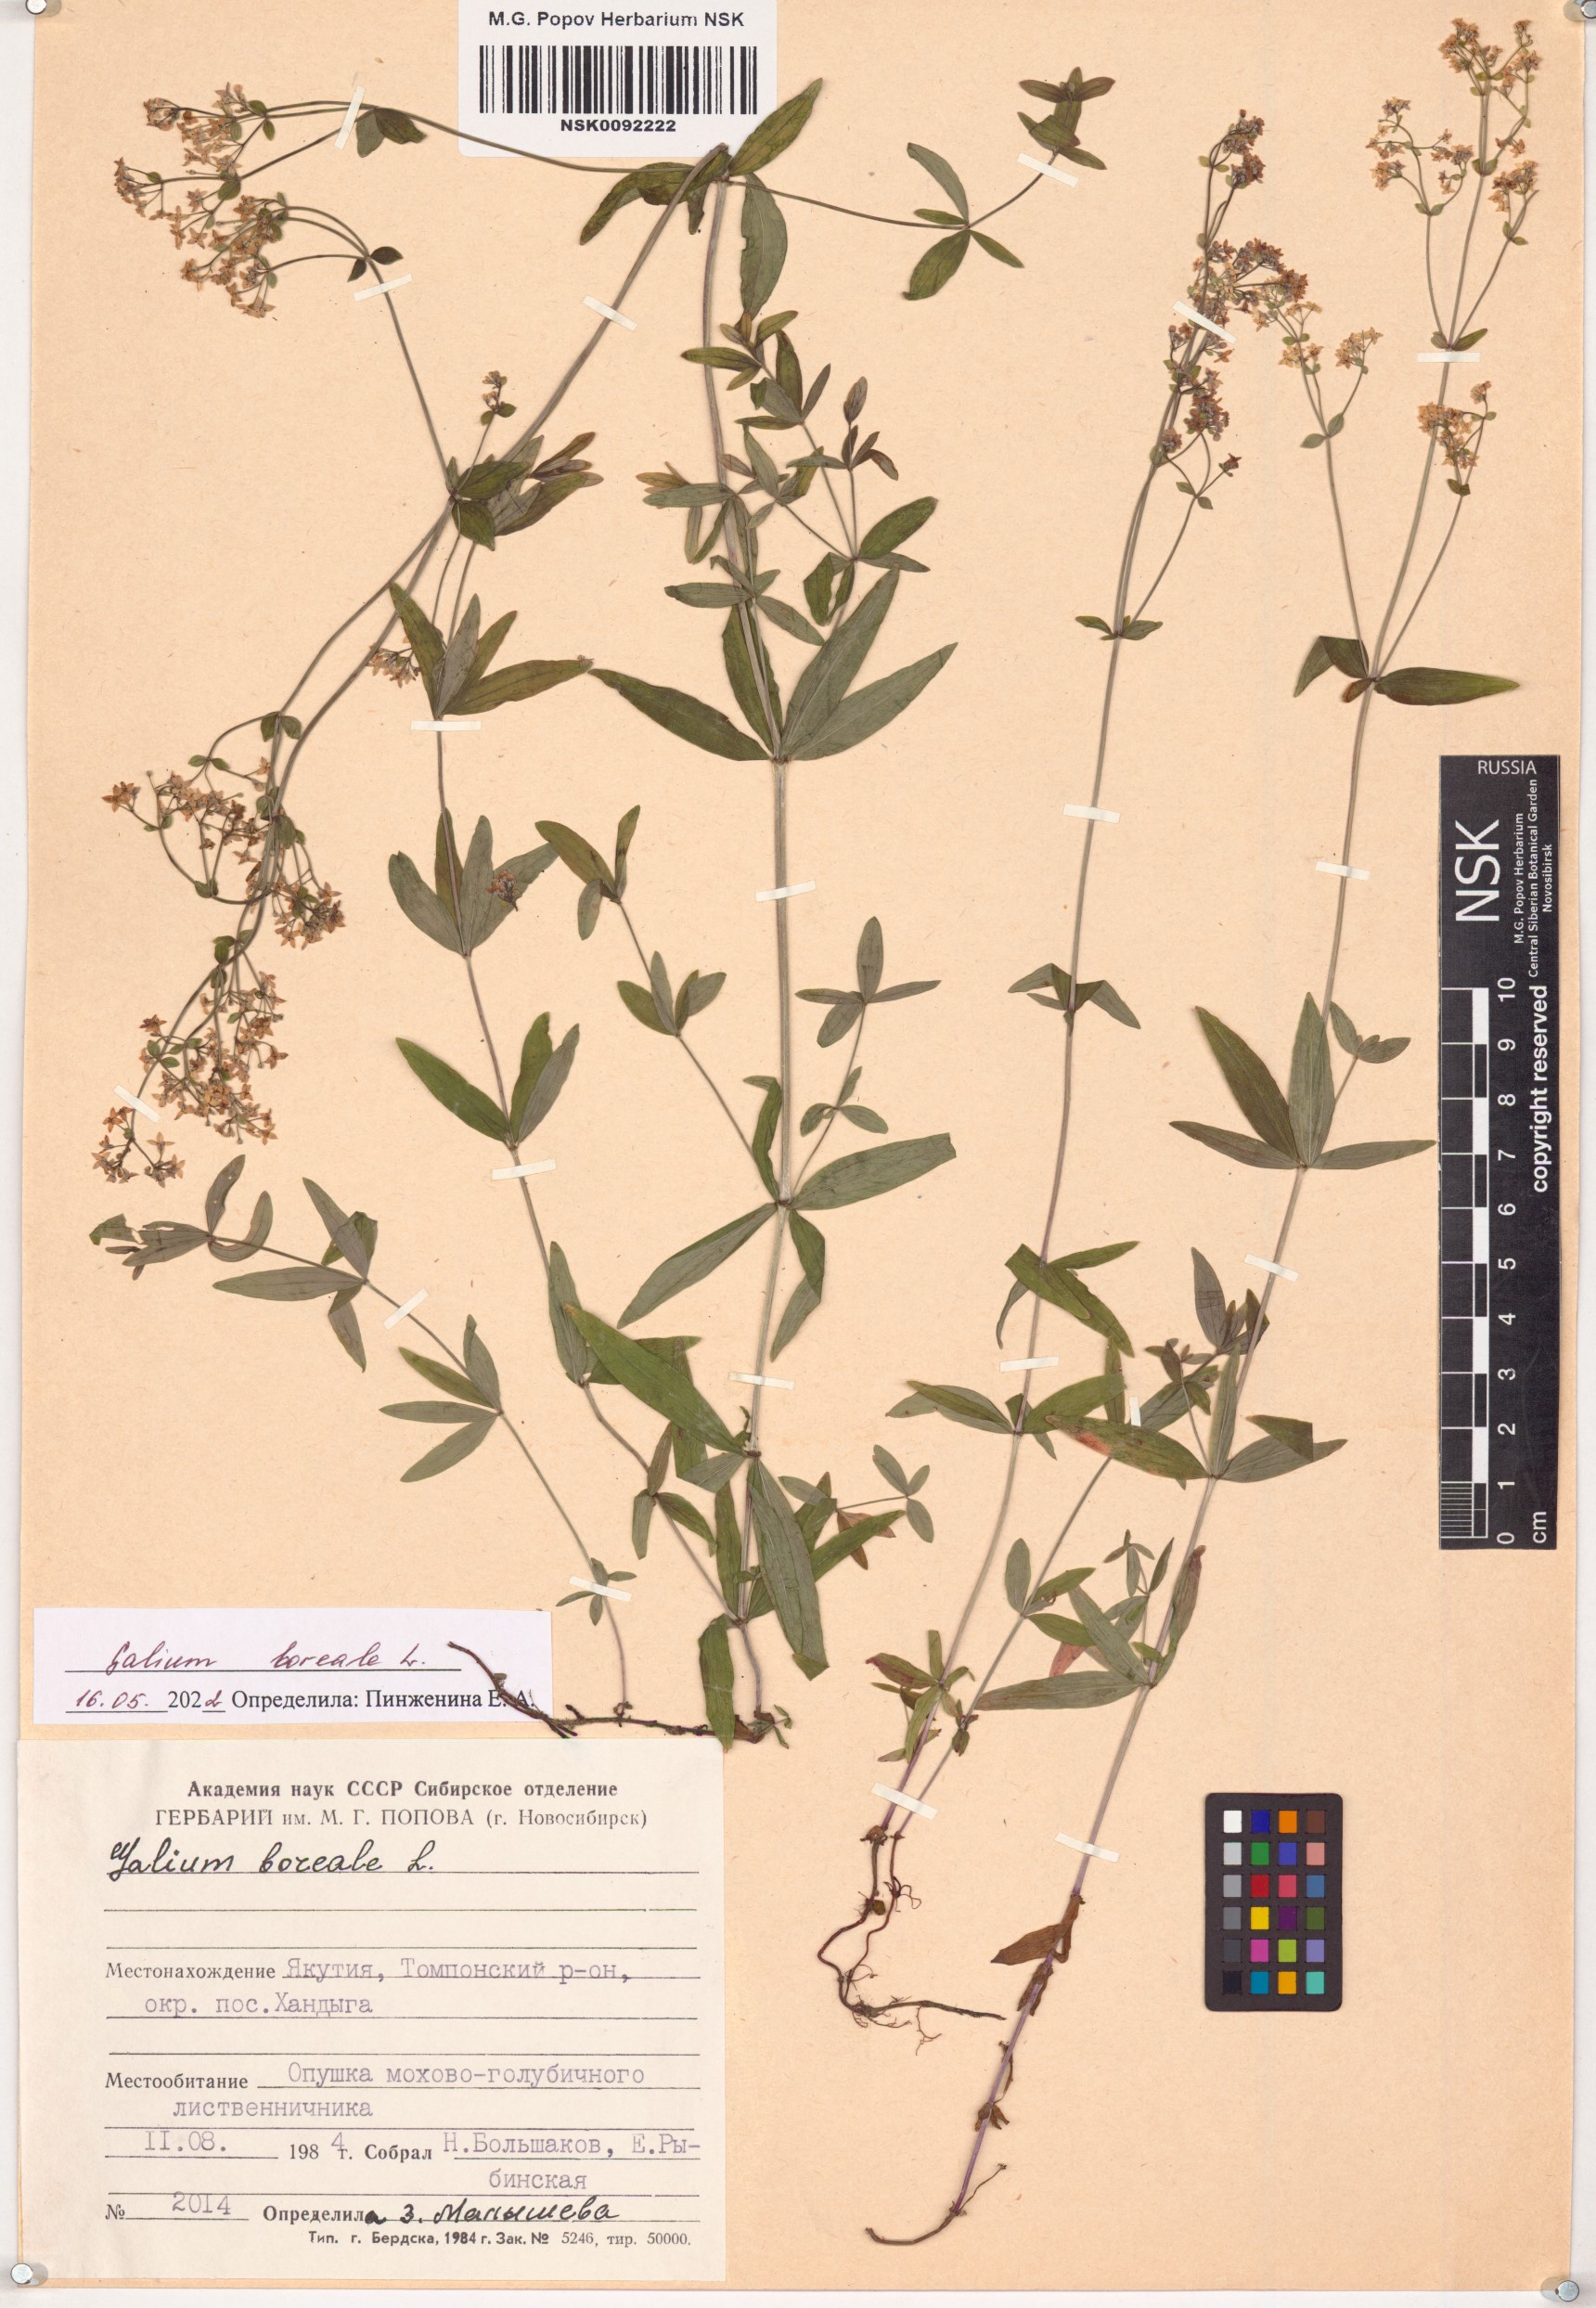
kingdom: Plantae
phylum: Tracheophyta
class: Magnoliopsida
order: Gentianales
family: Rubiaceae
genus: Galium
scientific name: Galium boreale
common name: Northern bedstraw
